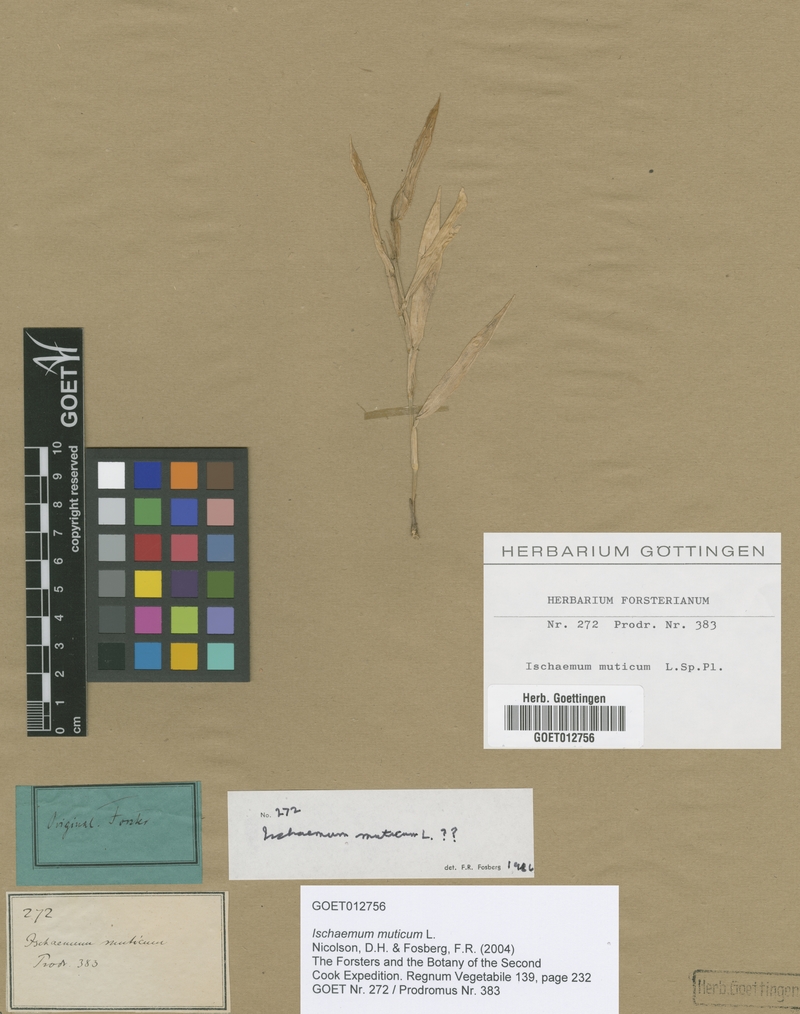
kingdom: Plantae
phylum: Tracheophyta
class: Liliopsida
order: Poales
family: Poaceae
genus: Ischaemum
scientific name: Ischaemum muticum
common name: Drought grass
